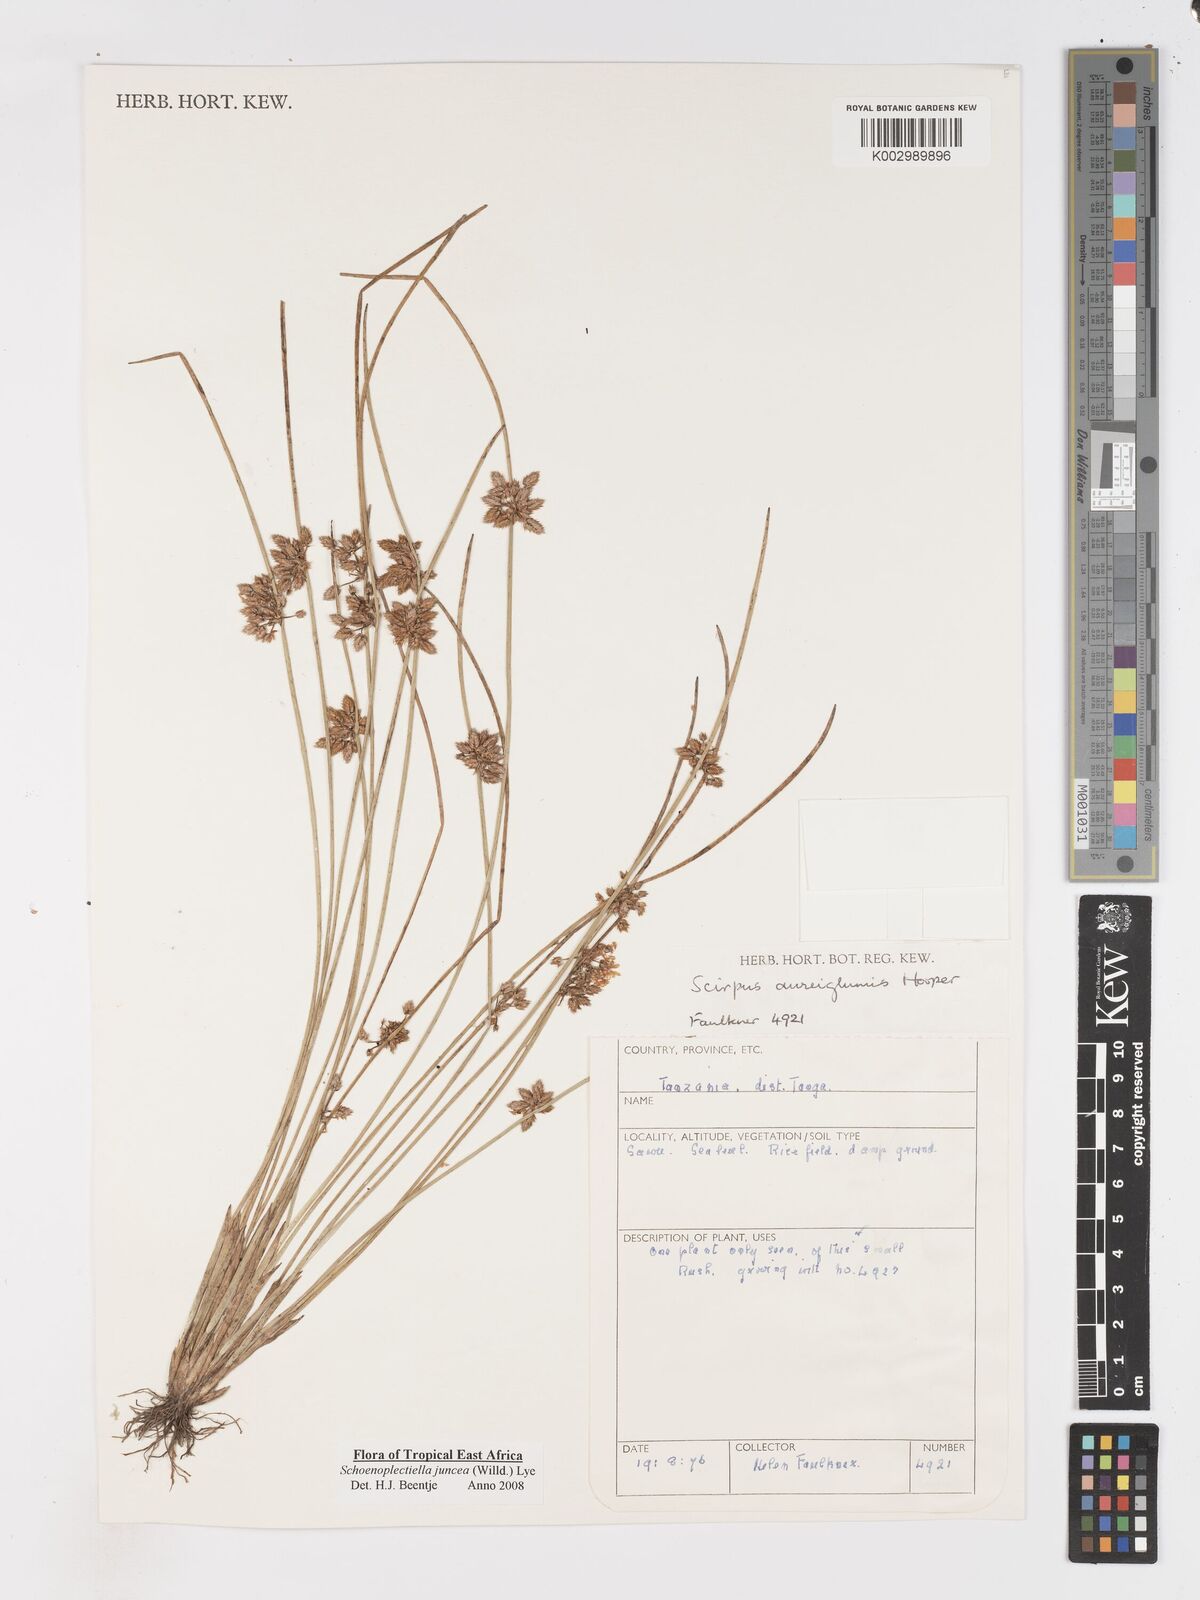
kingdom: Plantae
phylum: Tracheophyta
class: Liliopsida
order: Poales
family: Cyperaceae
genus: Schoenoplectiella
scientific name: Schoenoplectiella juncea
